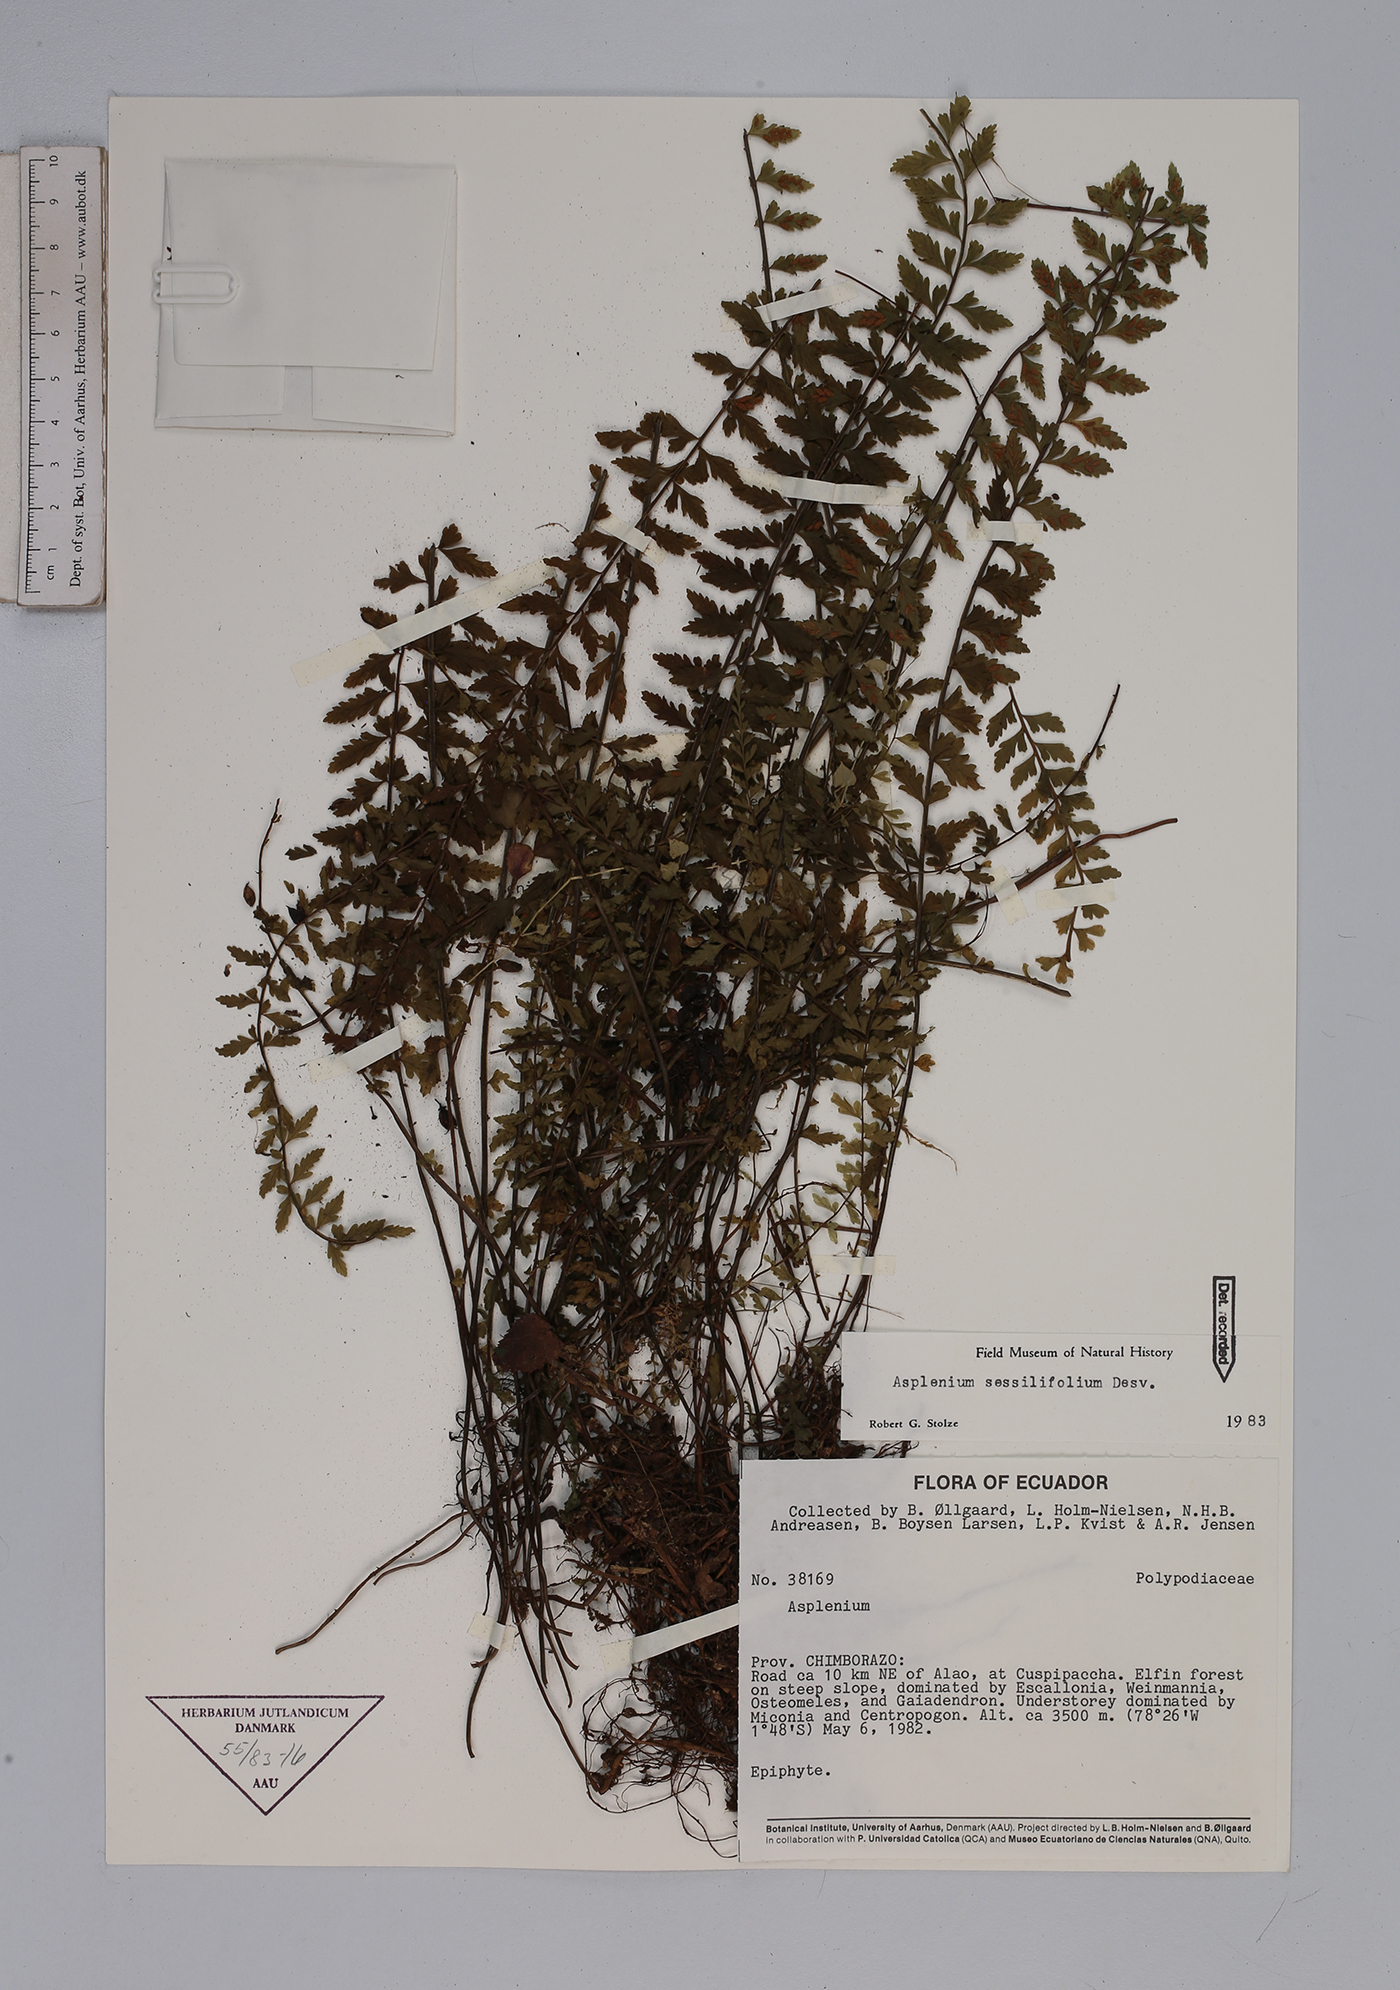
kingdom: Plantae
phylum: Tracheophyta
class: Polypodiopsida
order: Polypodiales
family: Aspleniaceae
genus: Asplenium
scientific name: Asplenium sessilifolium
